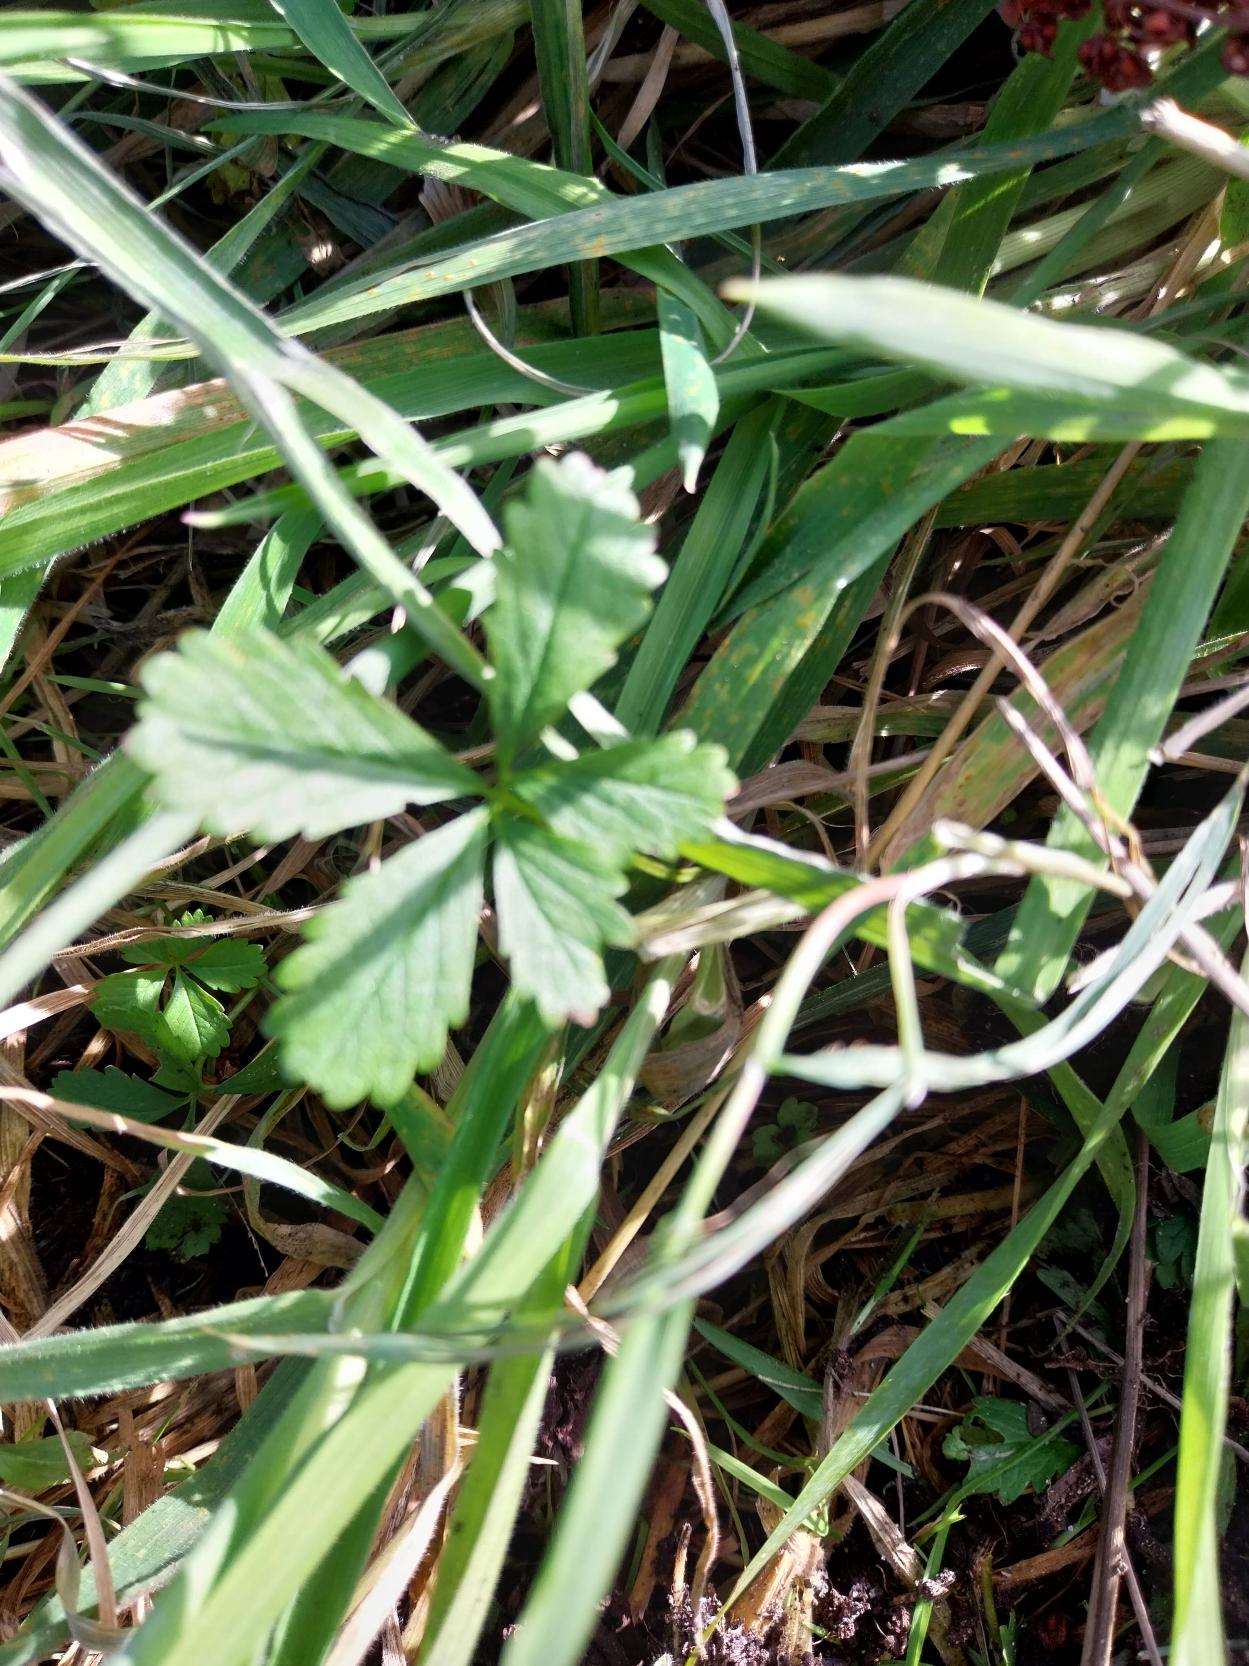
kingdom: Plantae
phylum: Tracheophyta
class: Magnoliopsida
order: Rosales
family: Rosaceae
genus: Potentilla
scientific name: Potentilla reptans
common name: Krybende potentil
